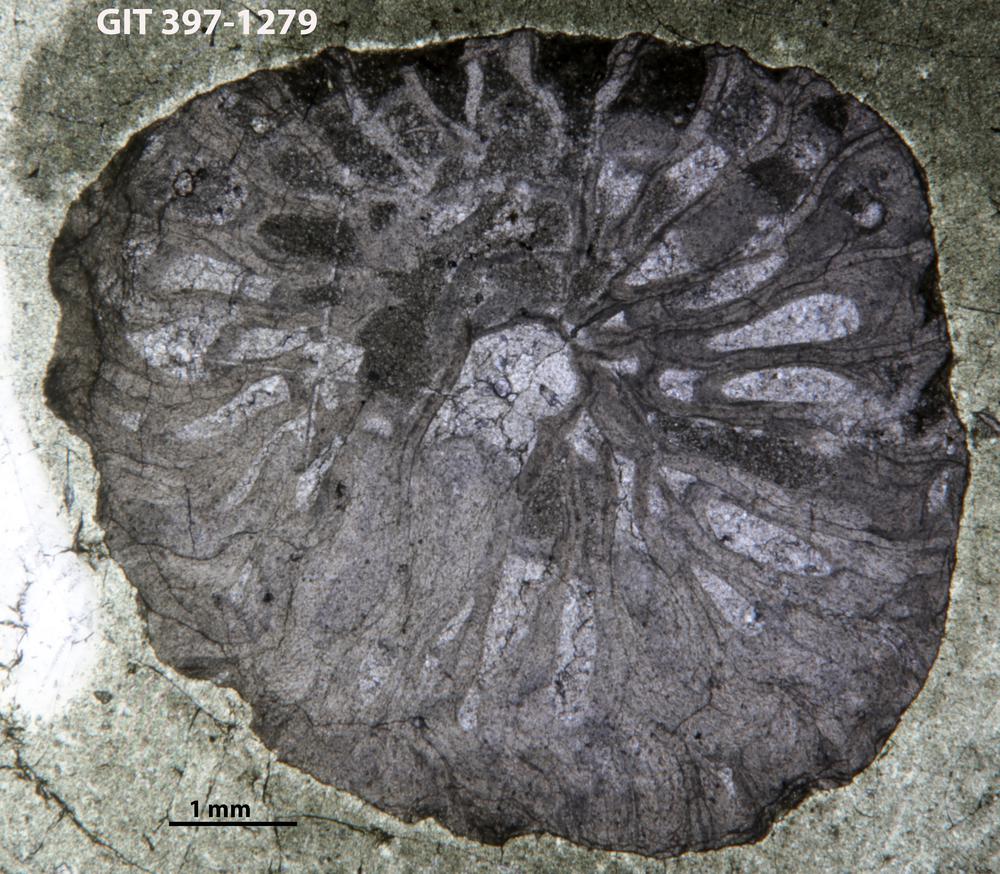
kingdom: Animalia
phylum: Cnidaria
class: Anthozoa
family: Lykophyllidae
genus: Phaulactis
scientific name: Phaulactis
